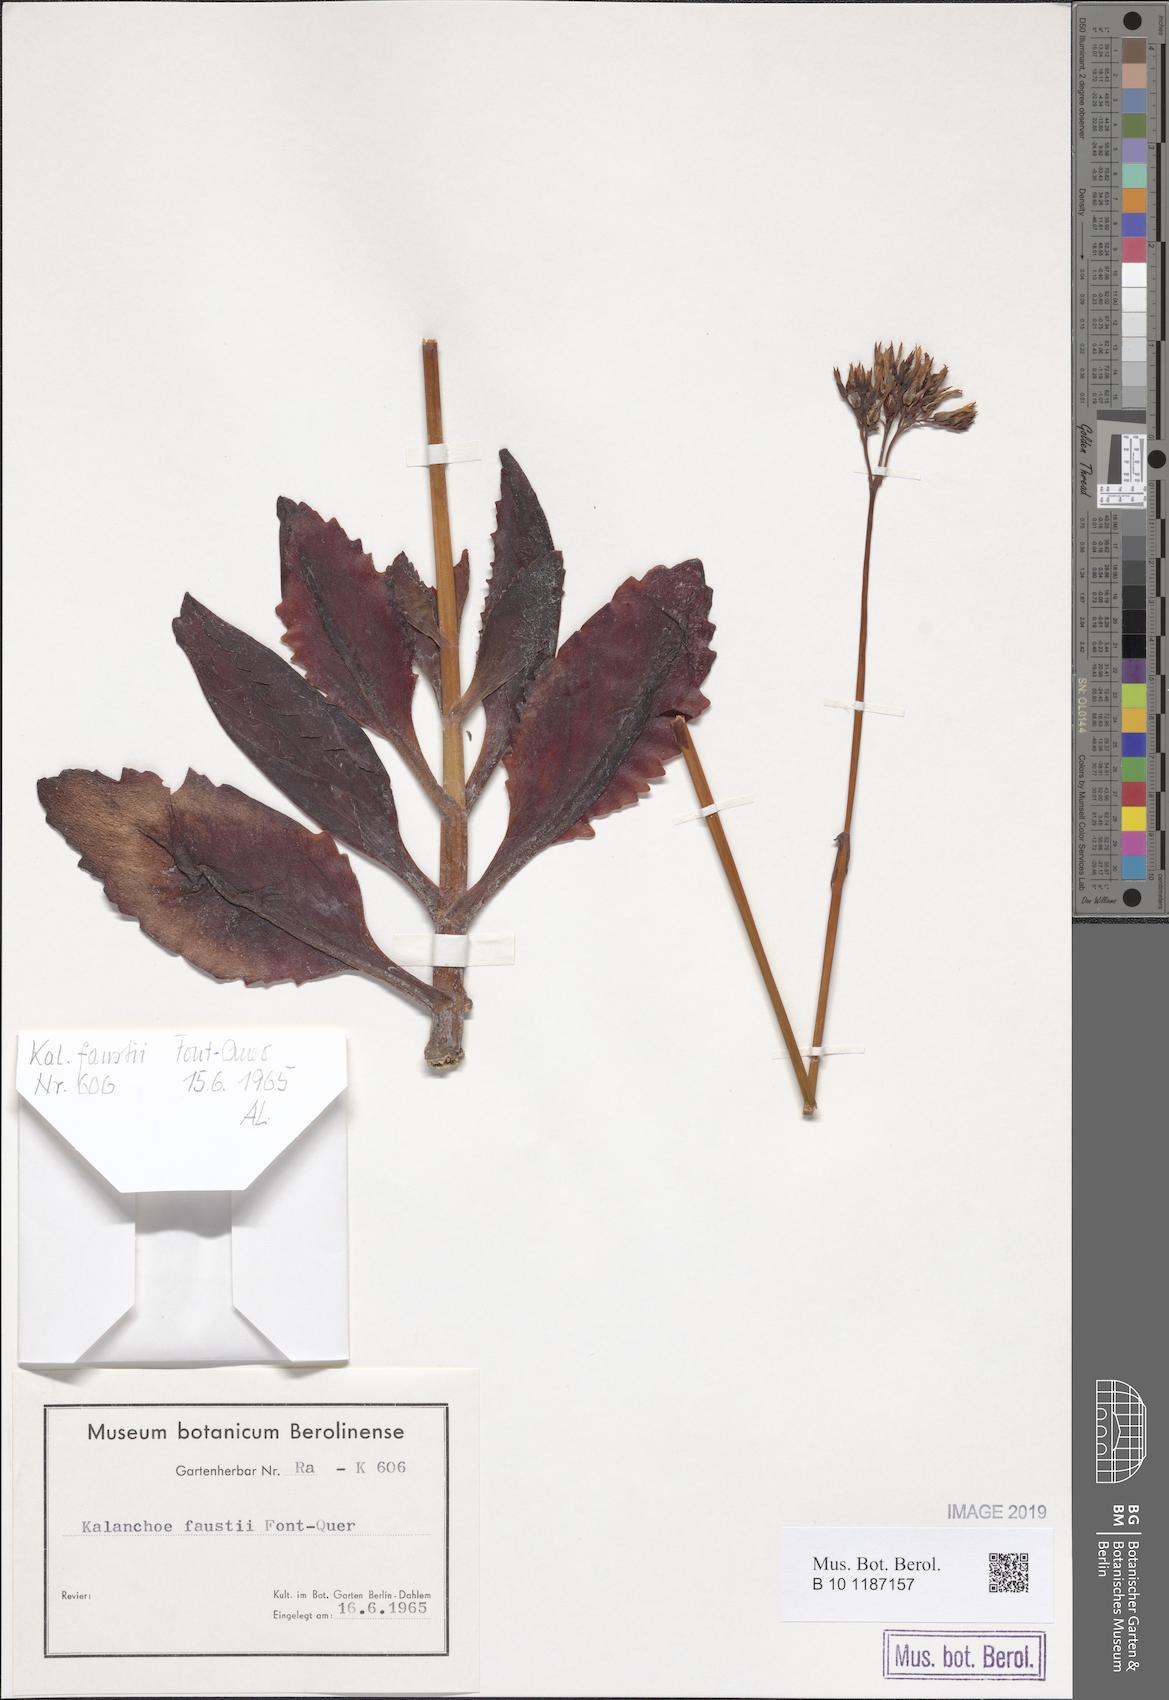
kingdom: Plantae
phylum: Tracheophyta
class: Magnoliopsida
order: Saxifragales
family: Crassulaceae
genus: Kalanchoe
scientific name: Kalanchoe faustii
